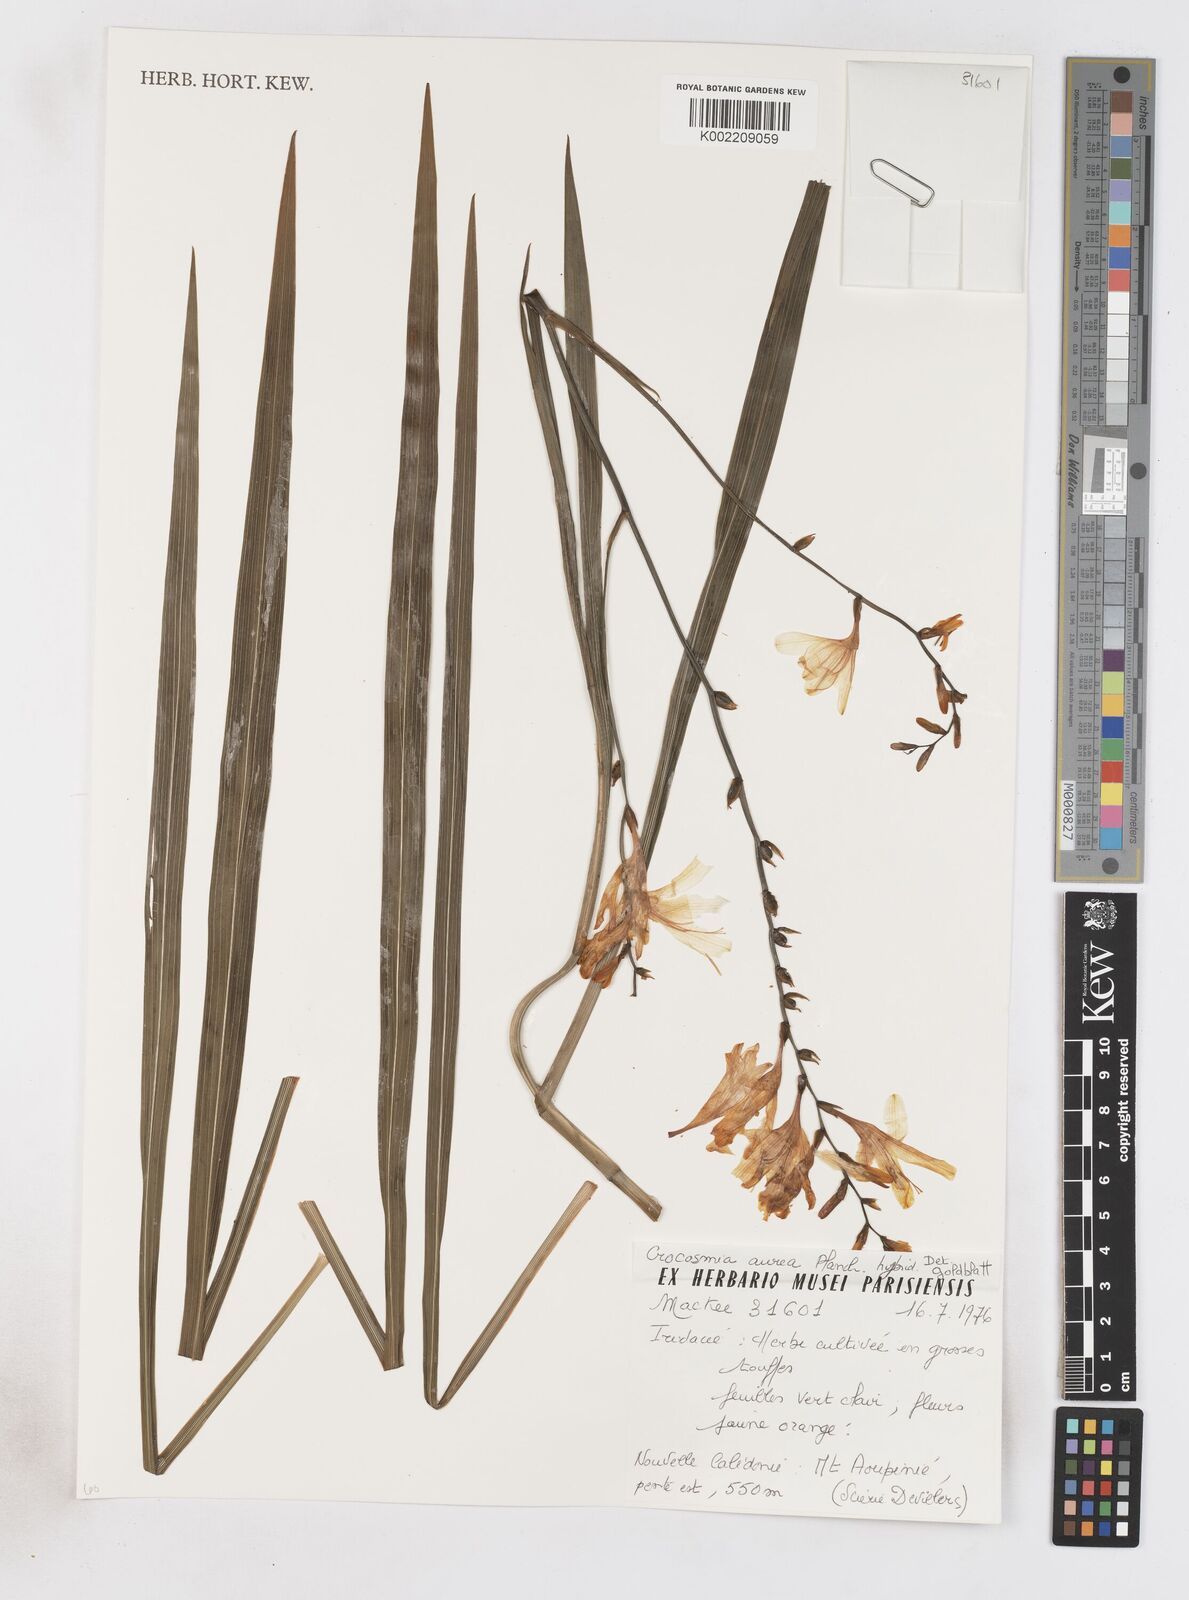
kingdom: Plantae
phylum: Tracheophyta
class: Liliopsida
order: Asparagales
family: Iridaceae
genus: Crocosmia
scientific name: Crocosmia aurea
